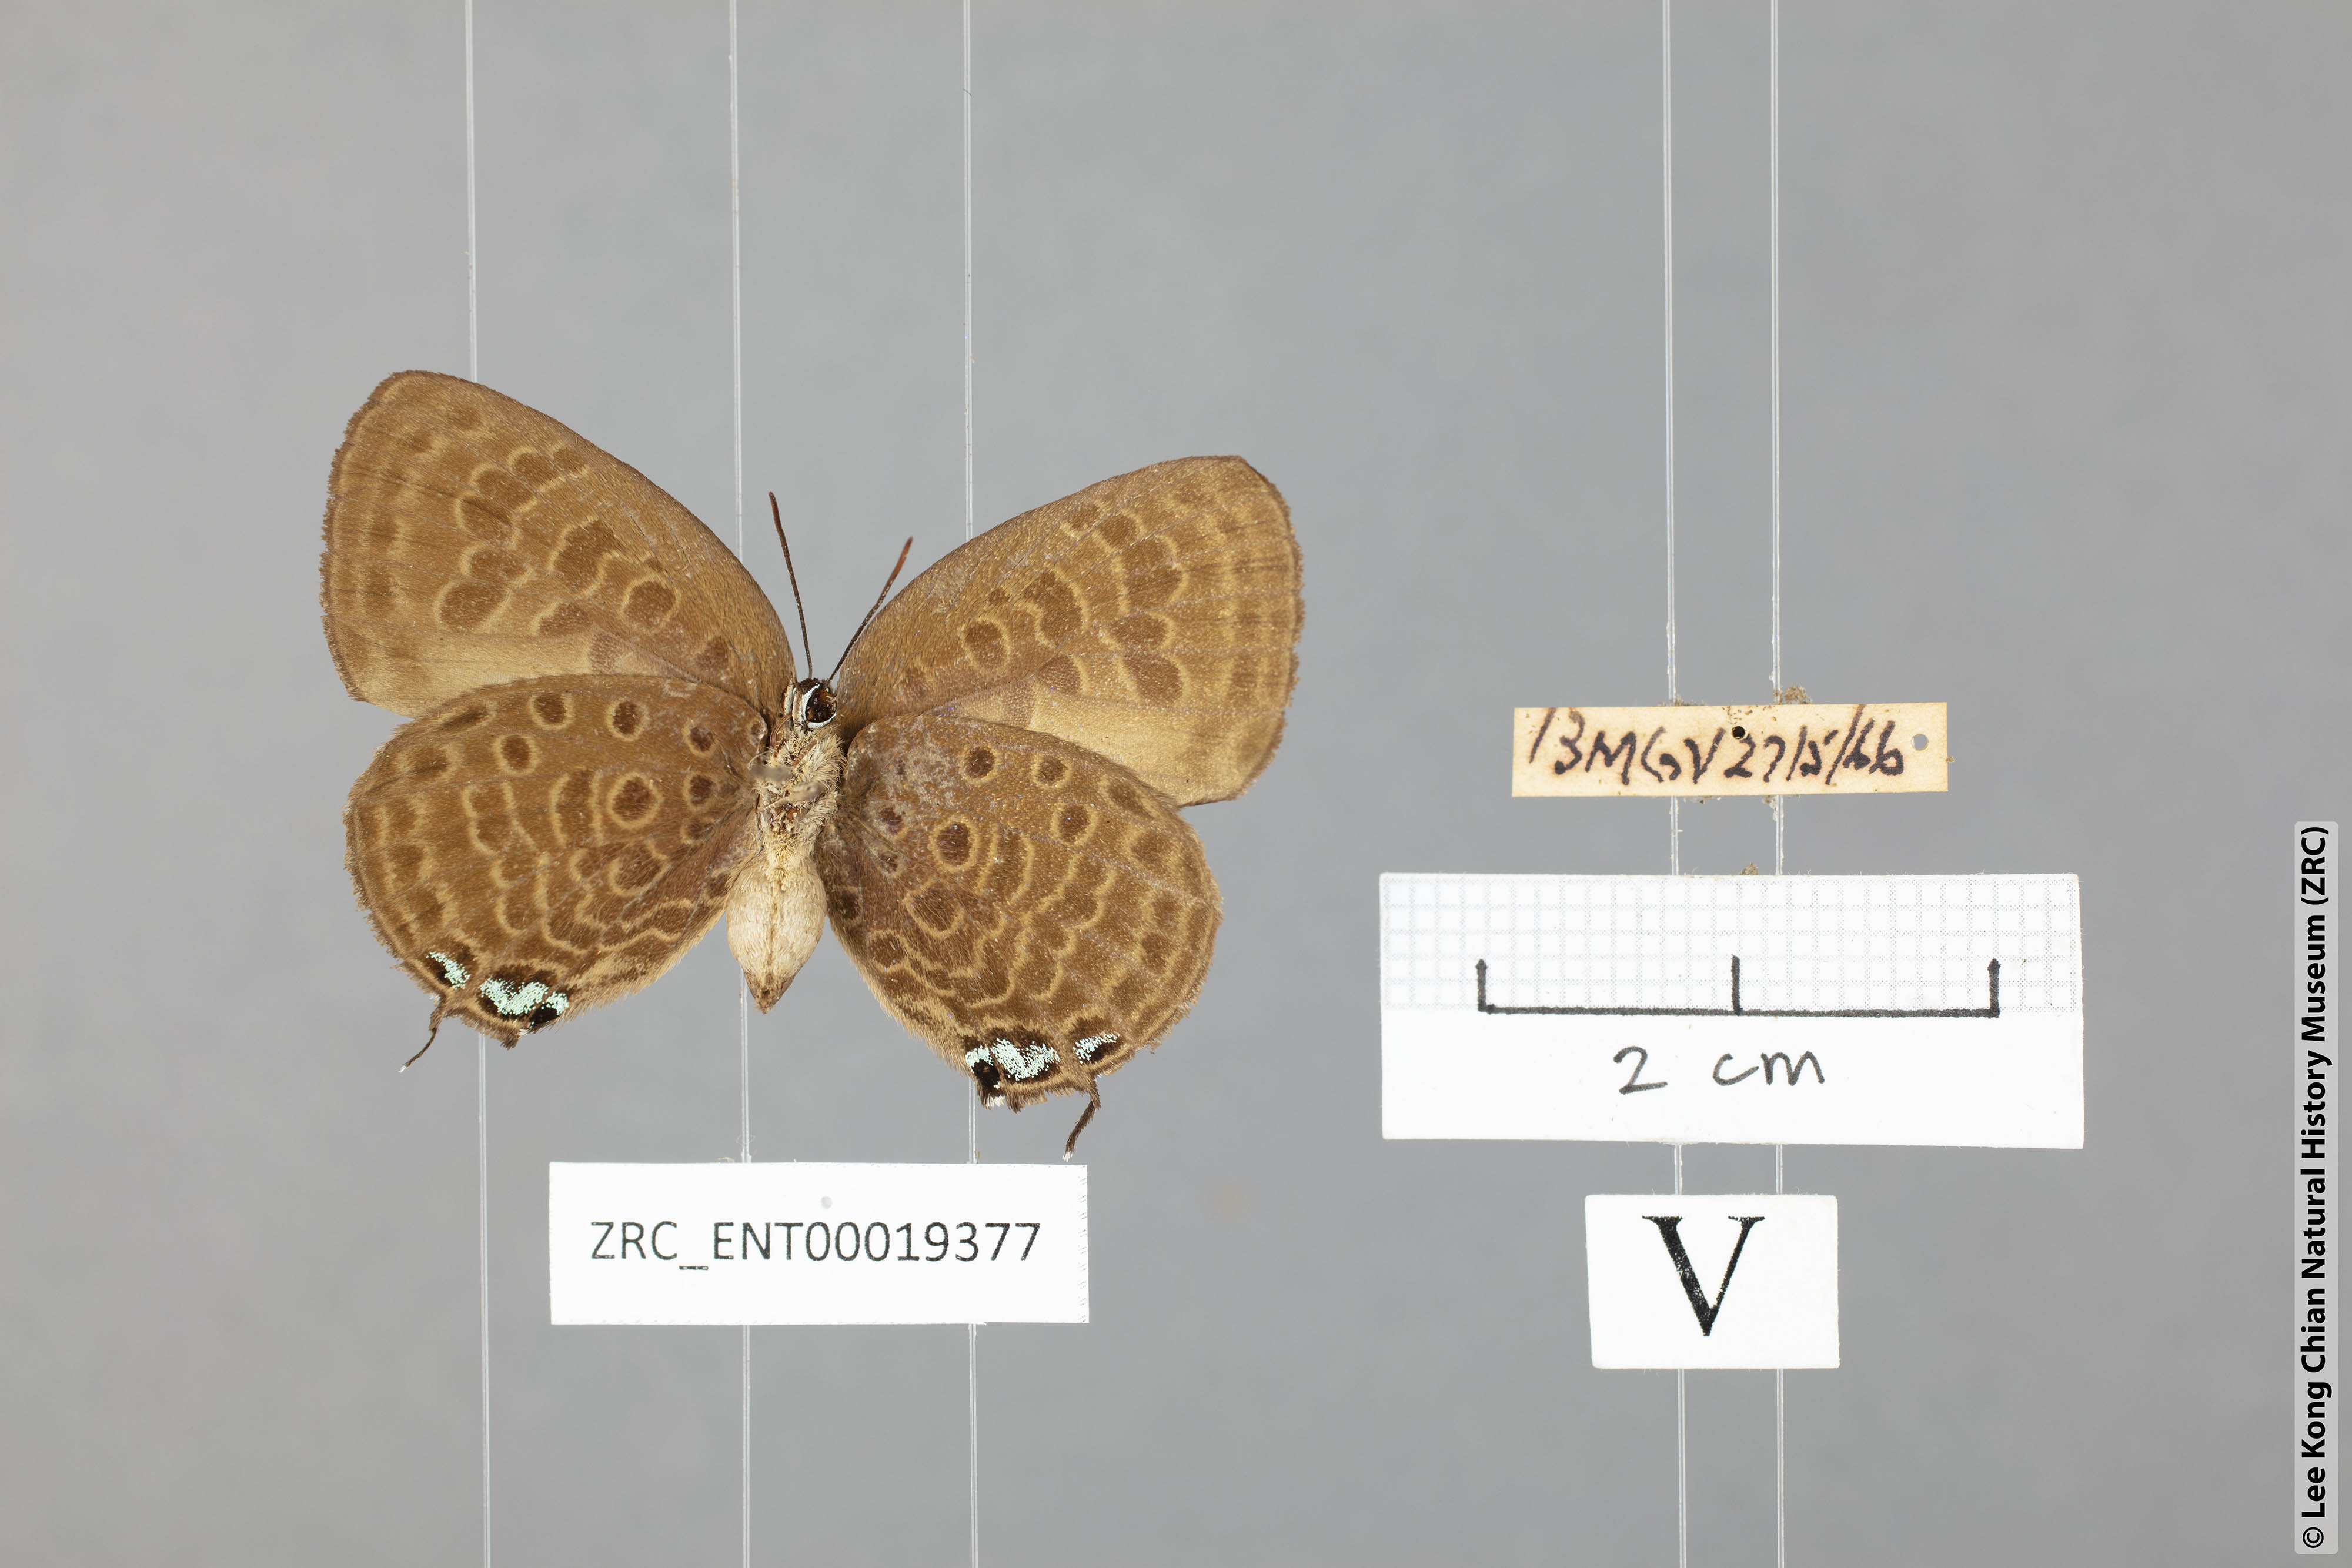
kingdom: Animalia
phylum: Arthropoda
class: Insecta
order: Lepidoptera
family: Lycaenidae
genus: Arhopala
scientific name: Arhopala delta
